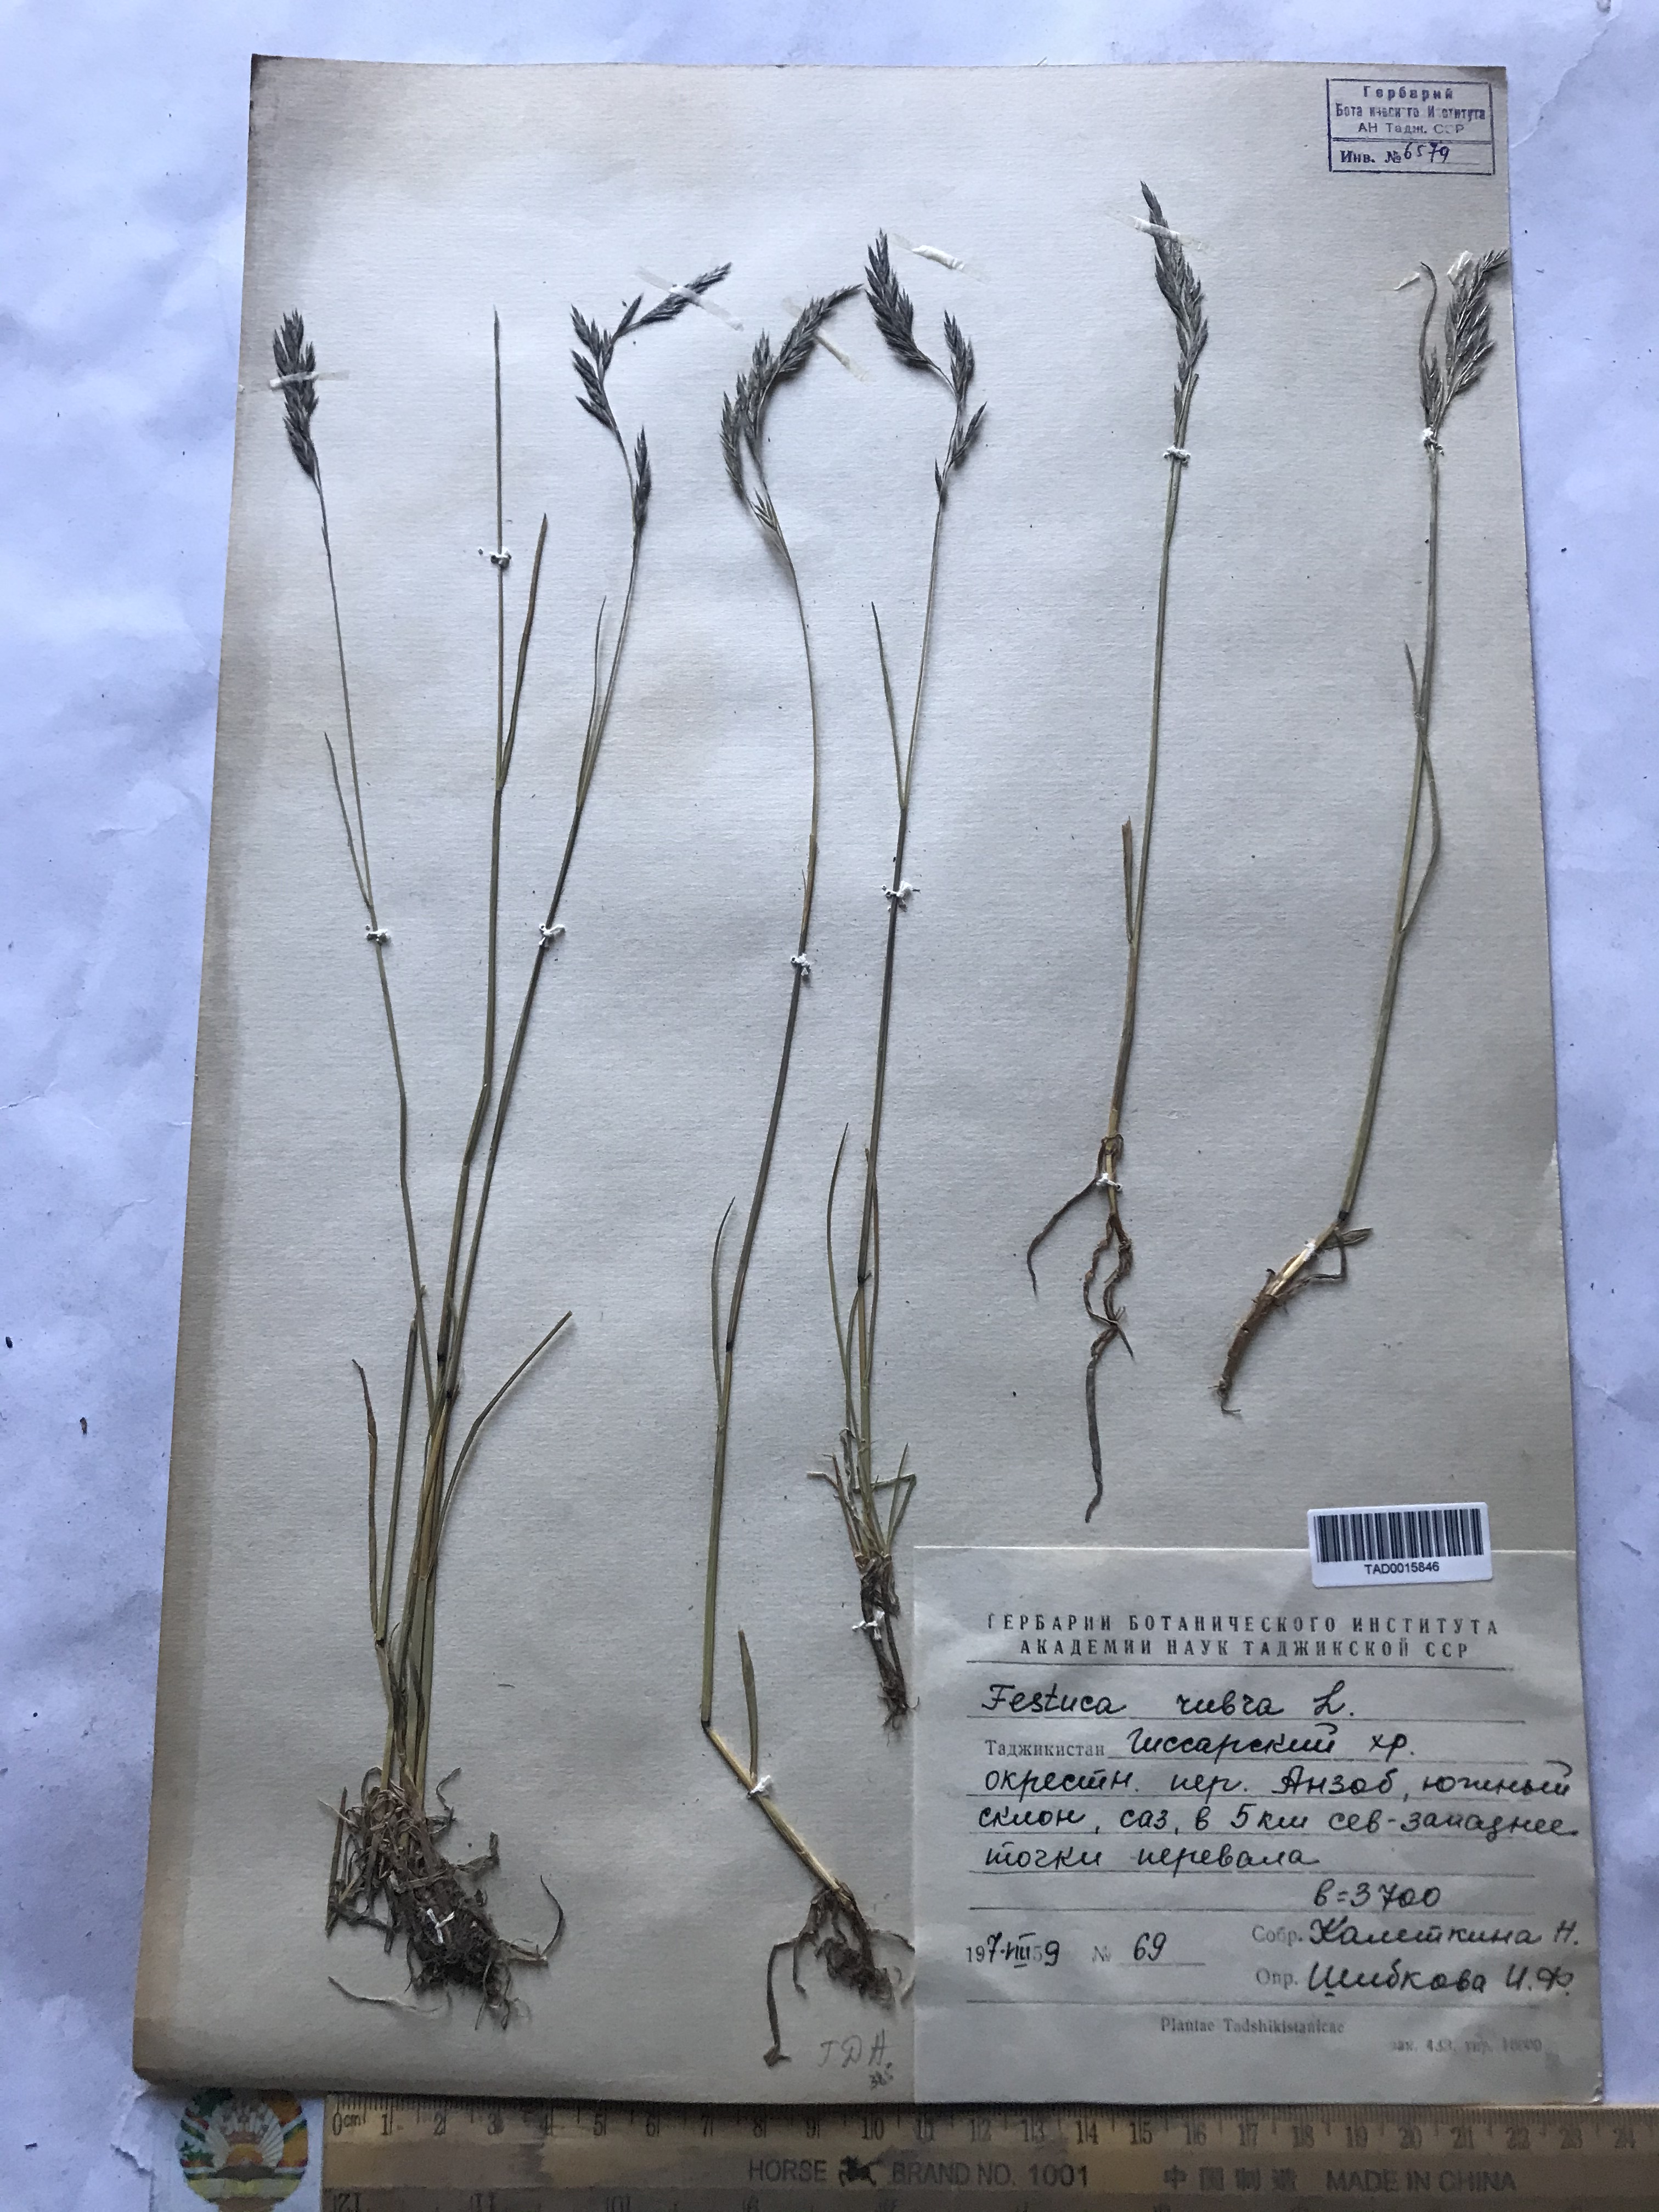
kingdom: Plantae
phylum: Tracheophyta
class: Liliopsida
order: Poales
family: Poaceae
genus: Festuca
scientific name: Festuca rubra
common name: Red fescue
